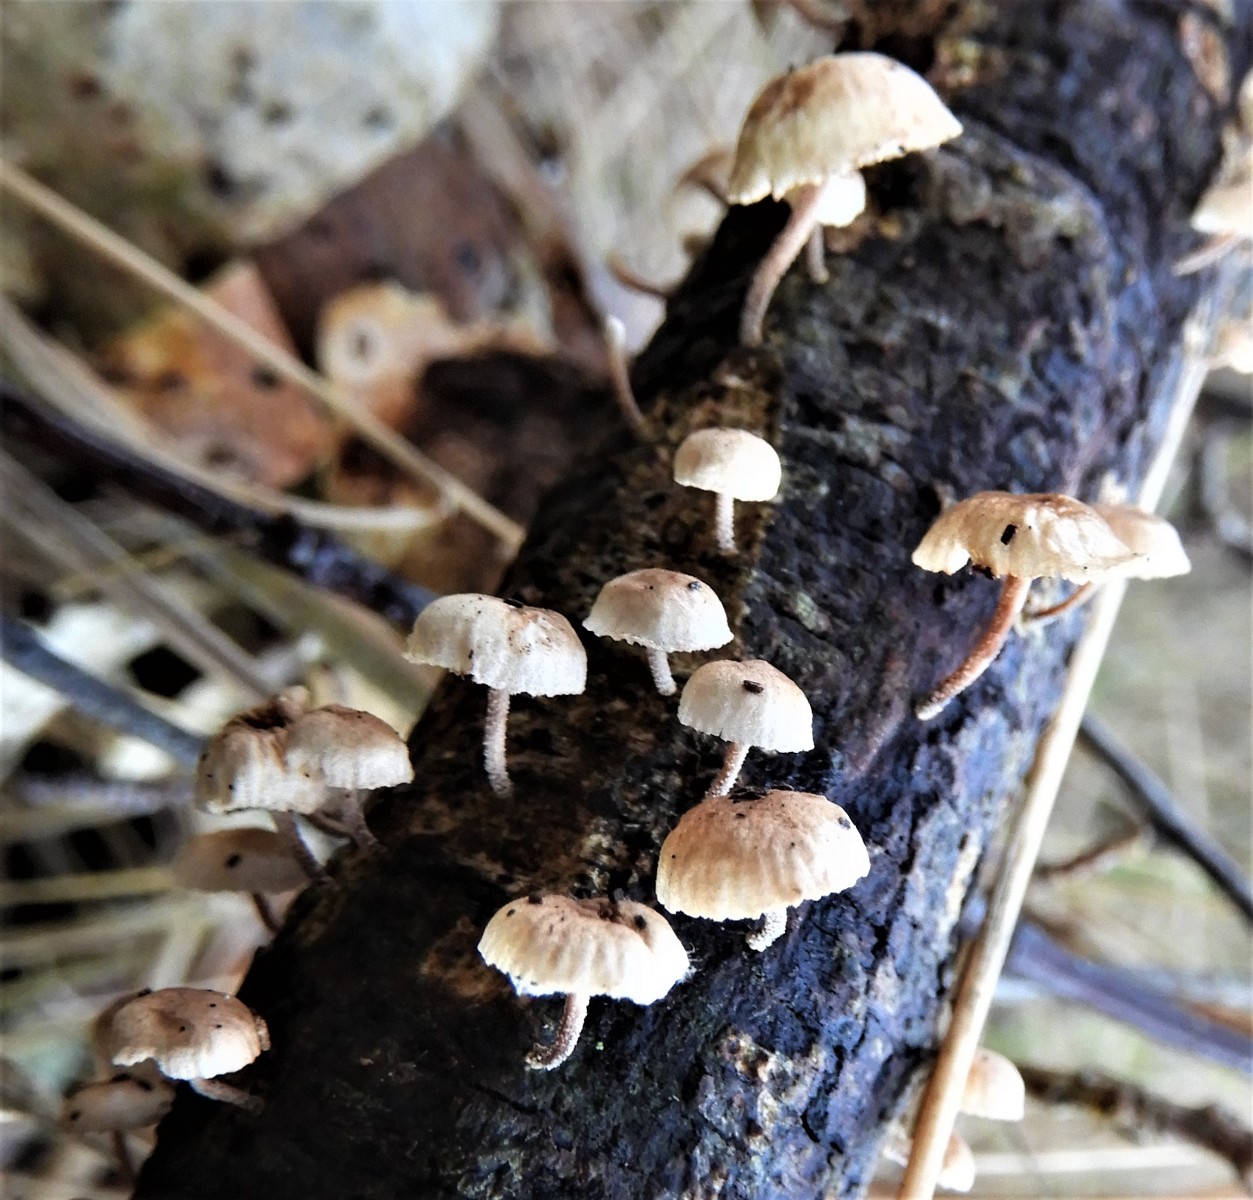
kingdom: Fungi
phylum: Basidiomycota
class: Agaricomycetes
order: Agaricales
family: Omphalotaceae
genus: Collybiopsis
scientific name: Collybiopsis ramealis
